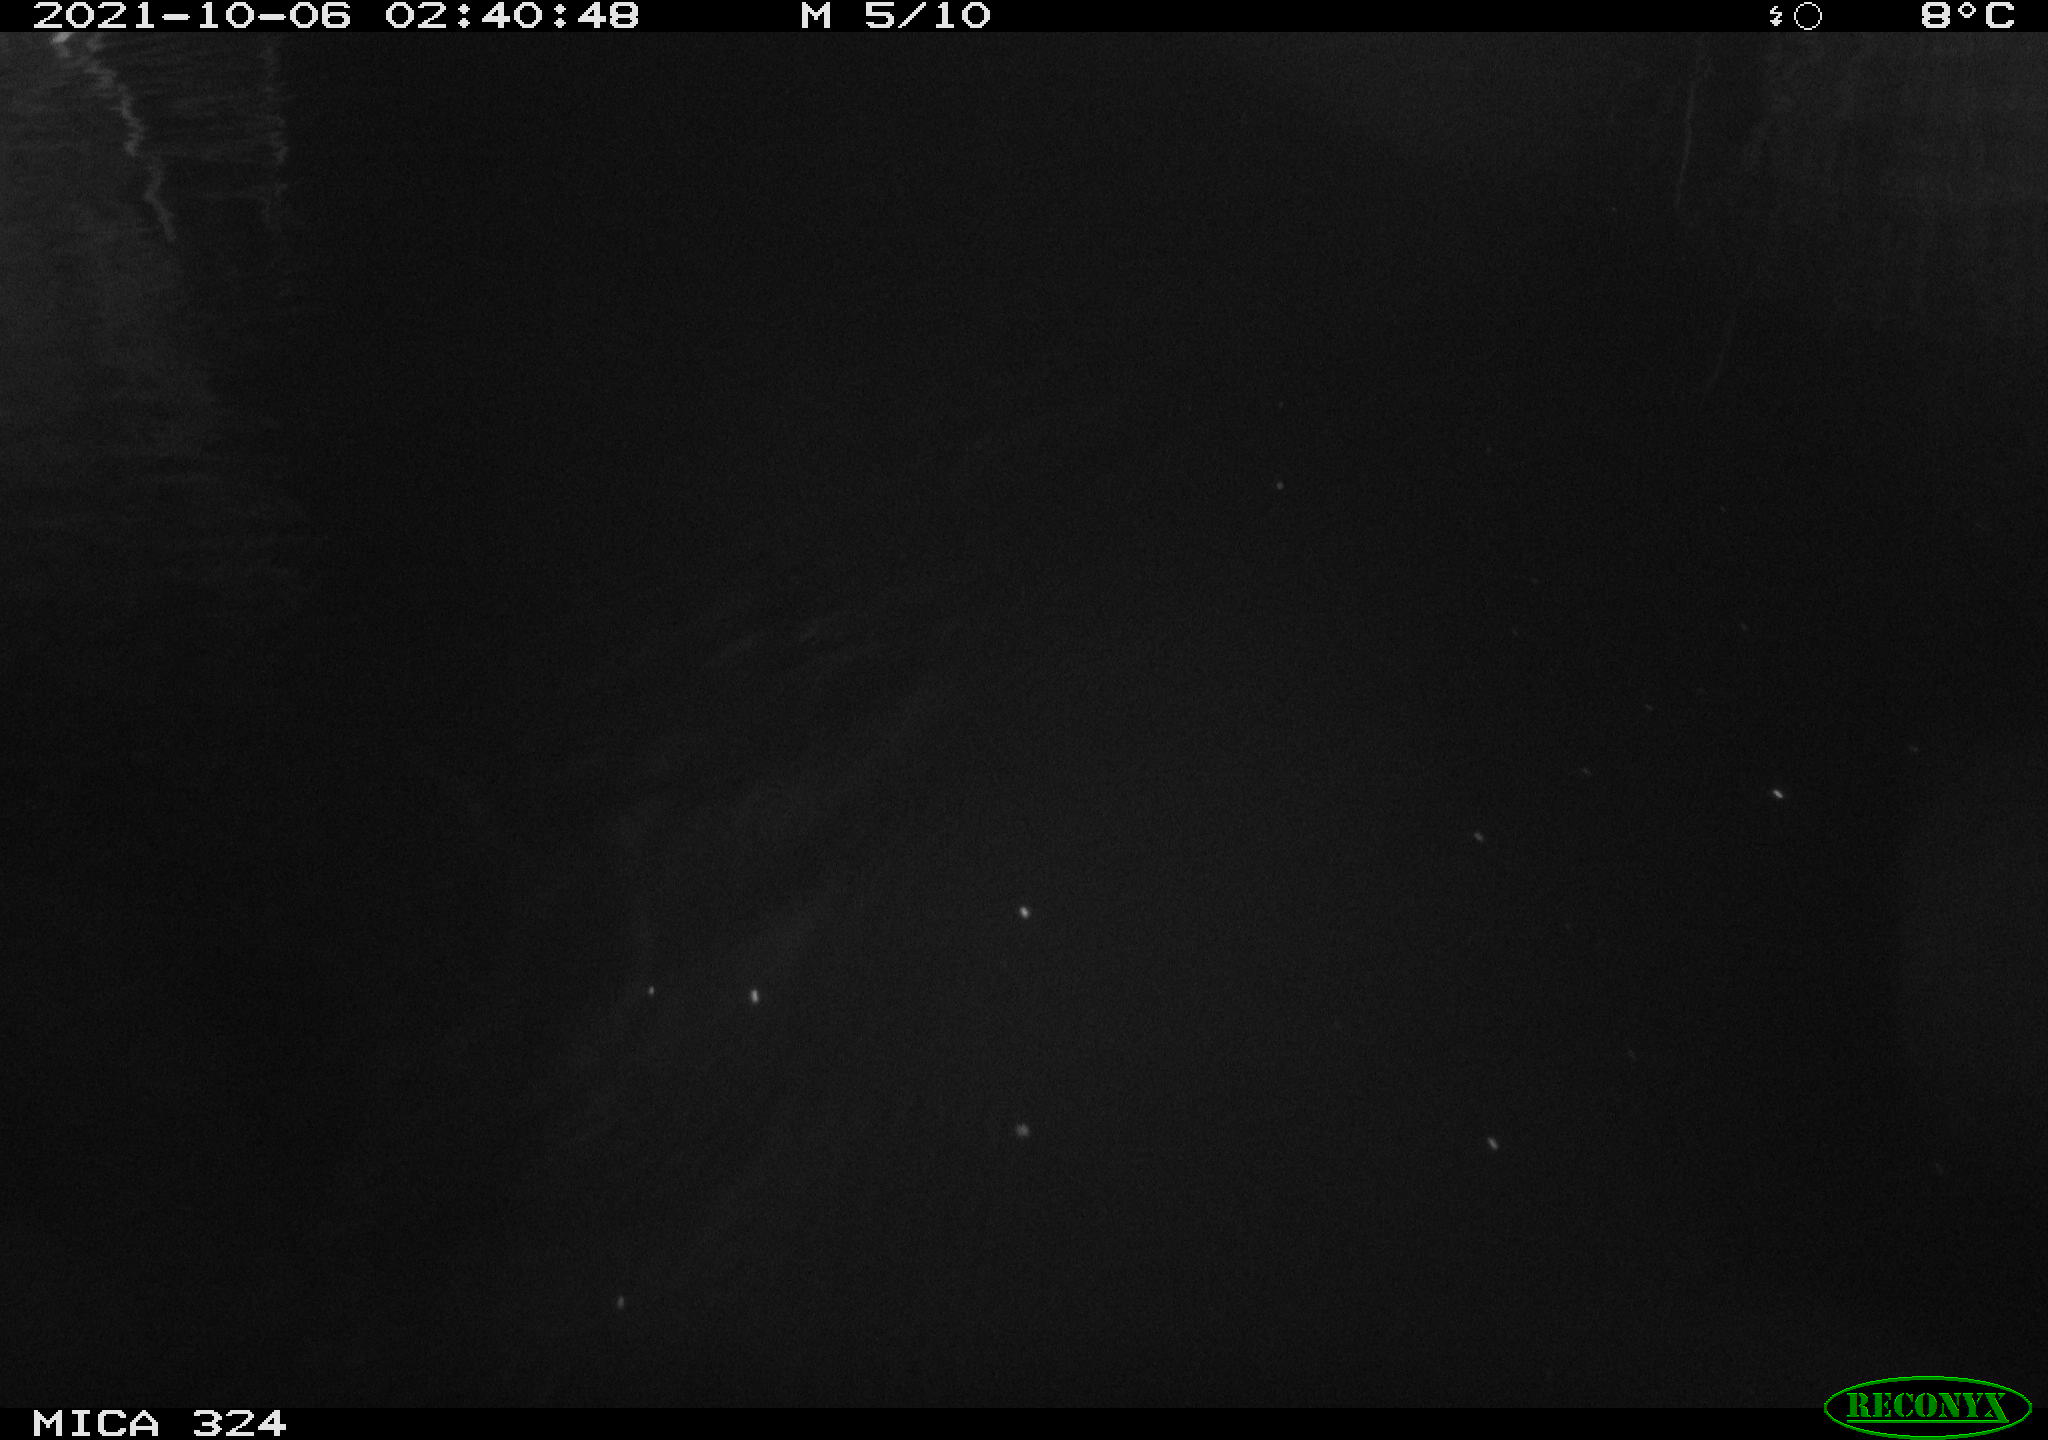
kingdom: Animalia
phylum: Chordata
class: Mammalia
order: Rodentia
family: Cricetidae
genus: Ondatra
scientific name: Ondatra zibethicus
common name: Muskrat
